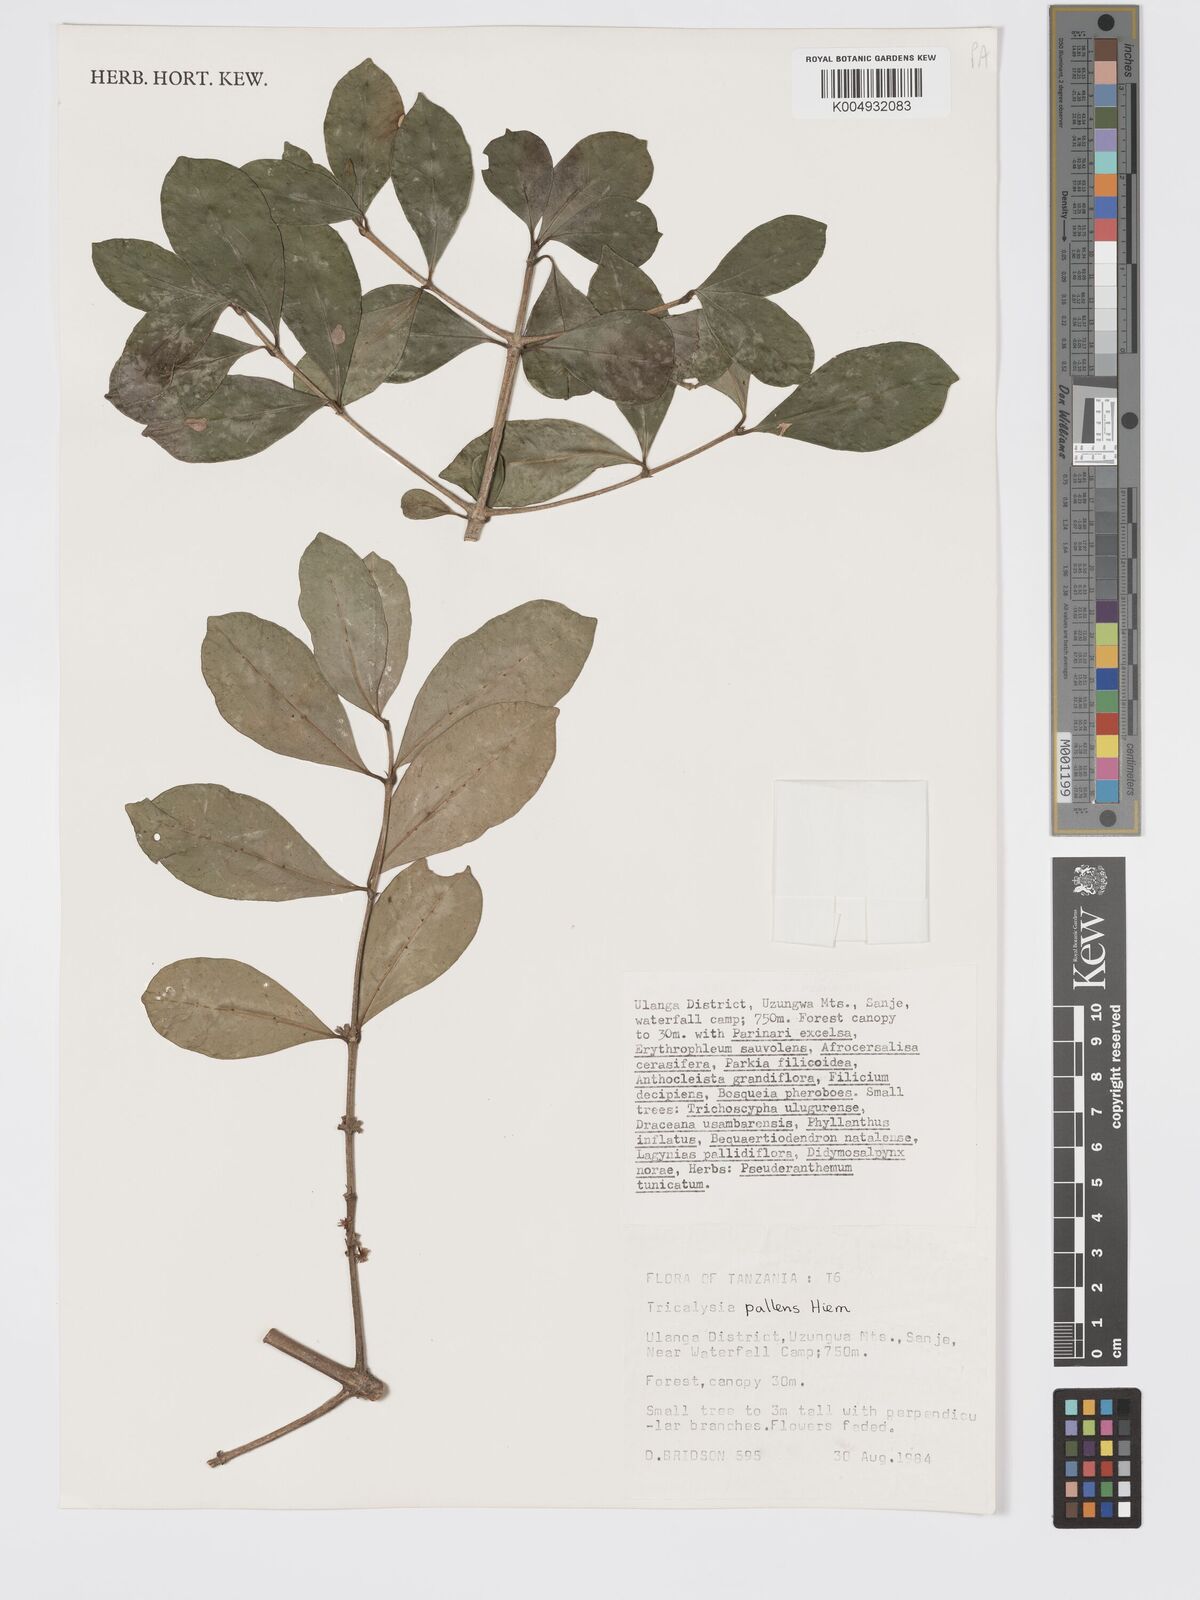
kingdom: Plantae
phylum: Tracheophyta
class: Magnoliopsida
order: Gentianales
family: Rubiaceae
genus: Tricalysia
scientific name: Tricalysia pallens
